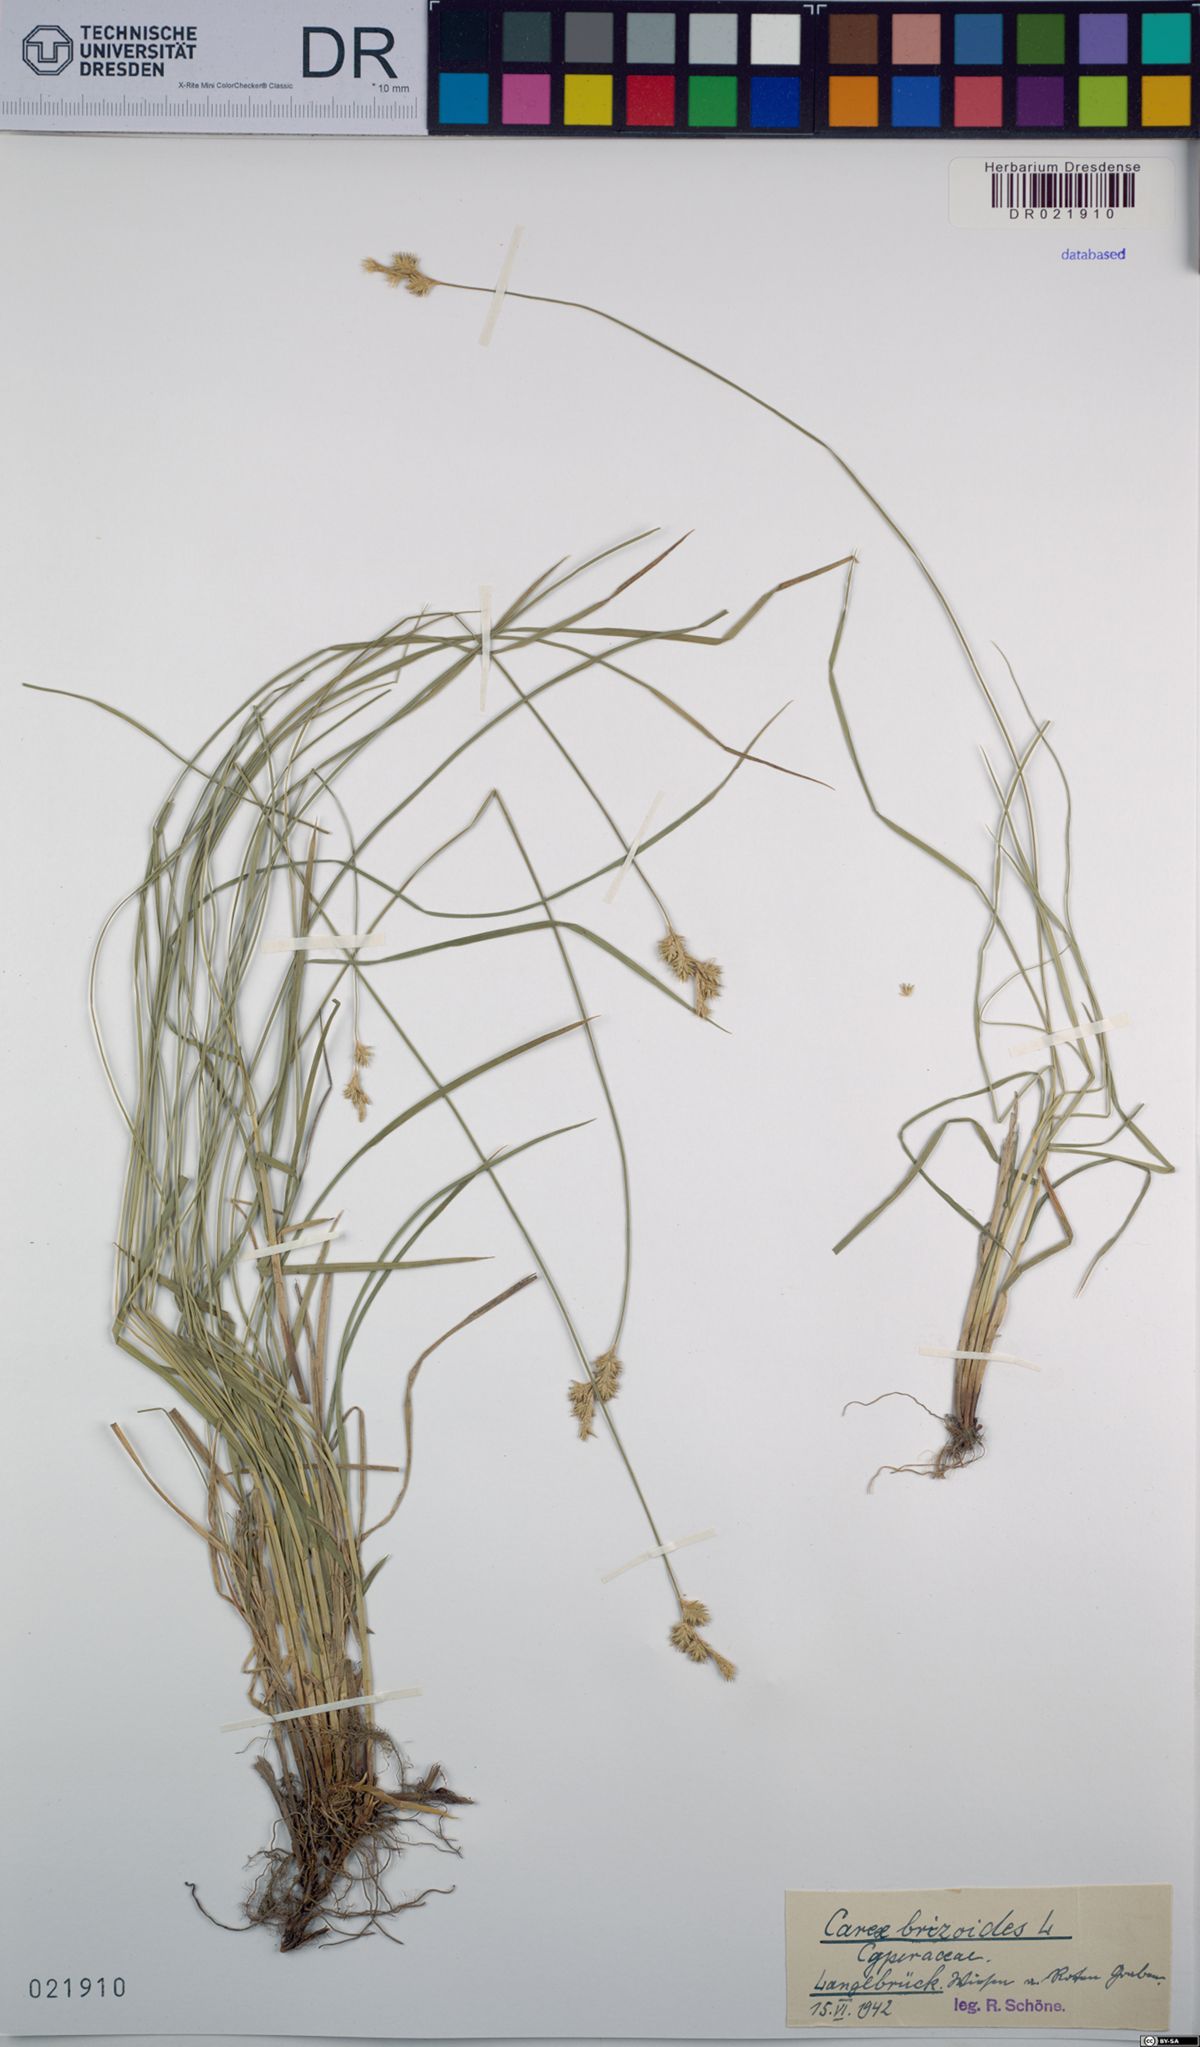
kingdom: Plantae
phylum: Tracheophyta
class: Liliopsida
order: Poales
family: Cyperaceae
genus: Carex
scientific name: Carex brizoides
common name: Quaking-grass sedge
